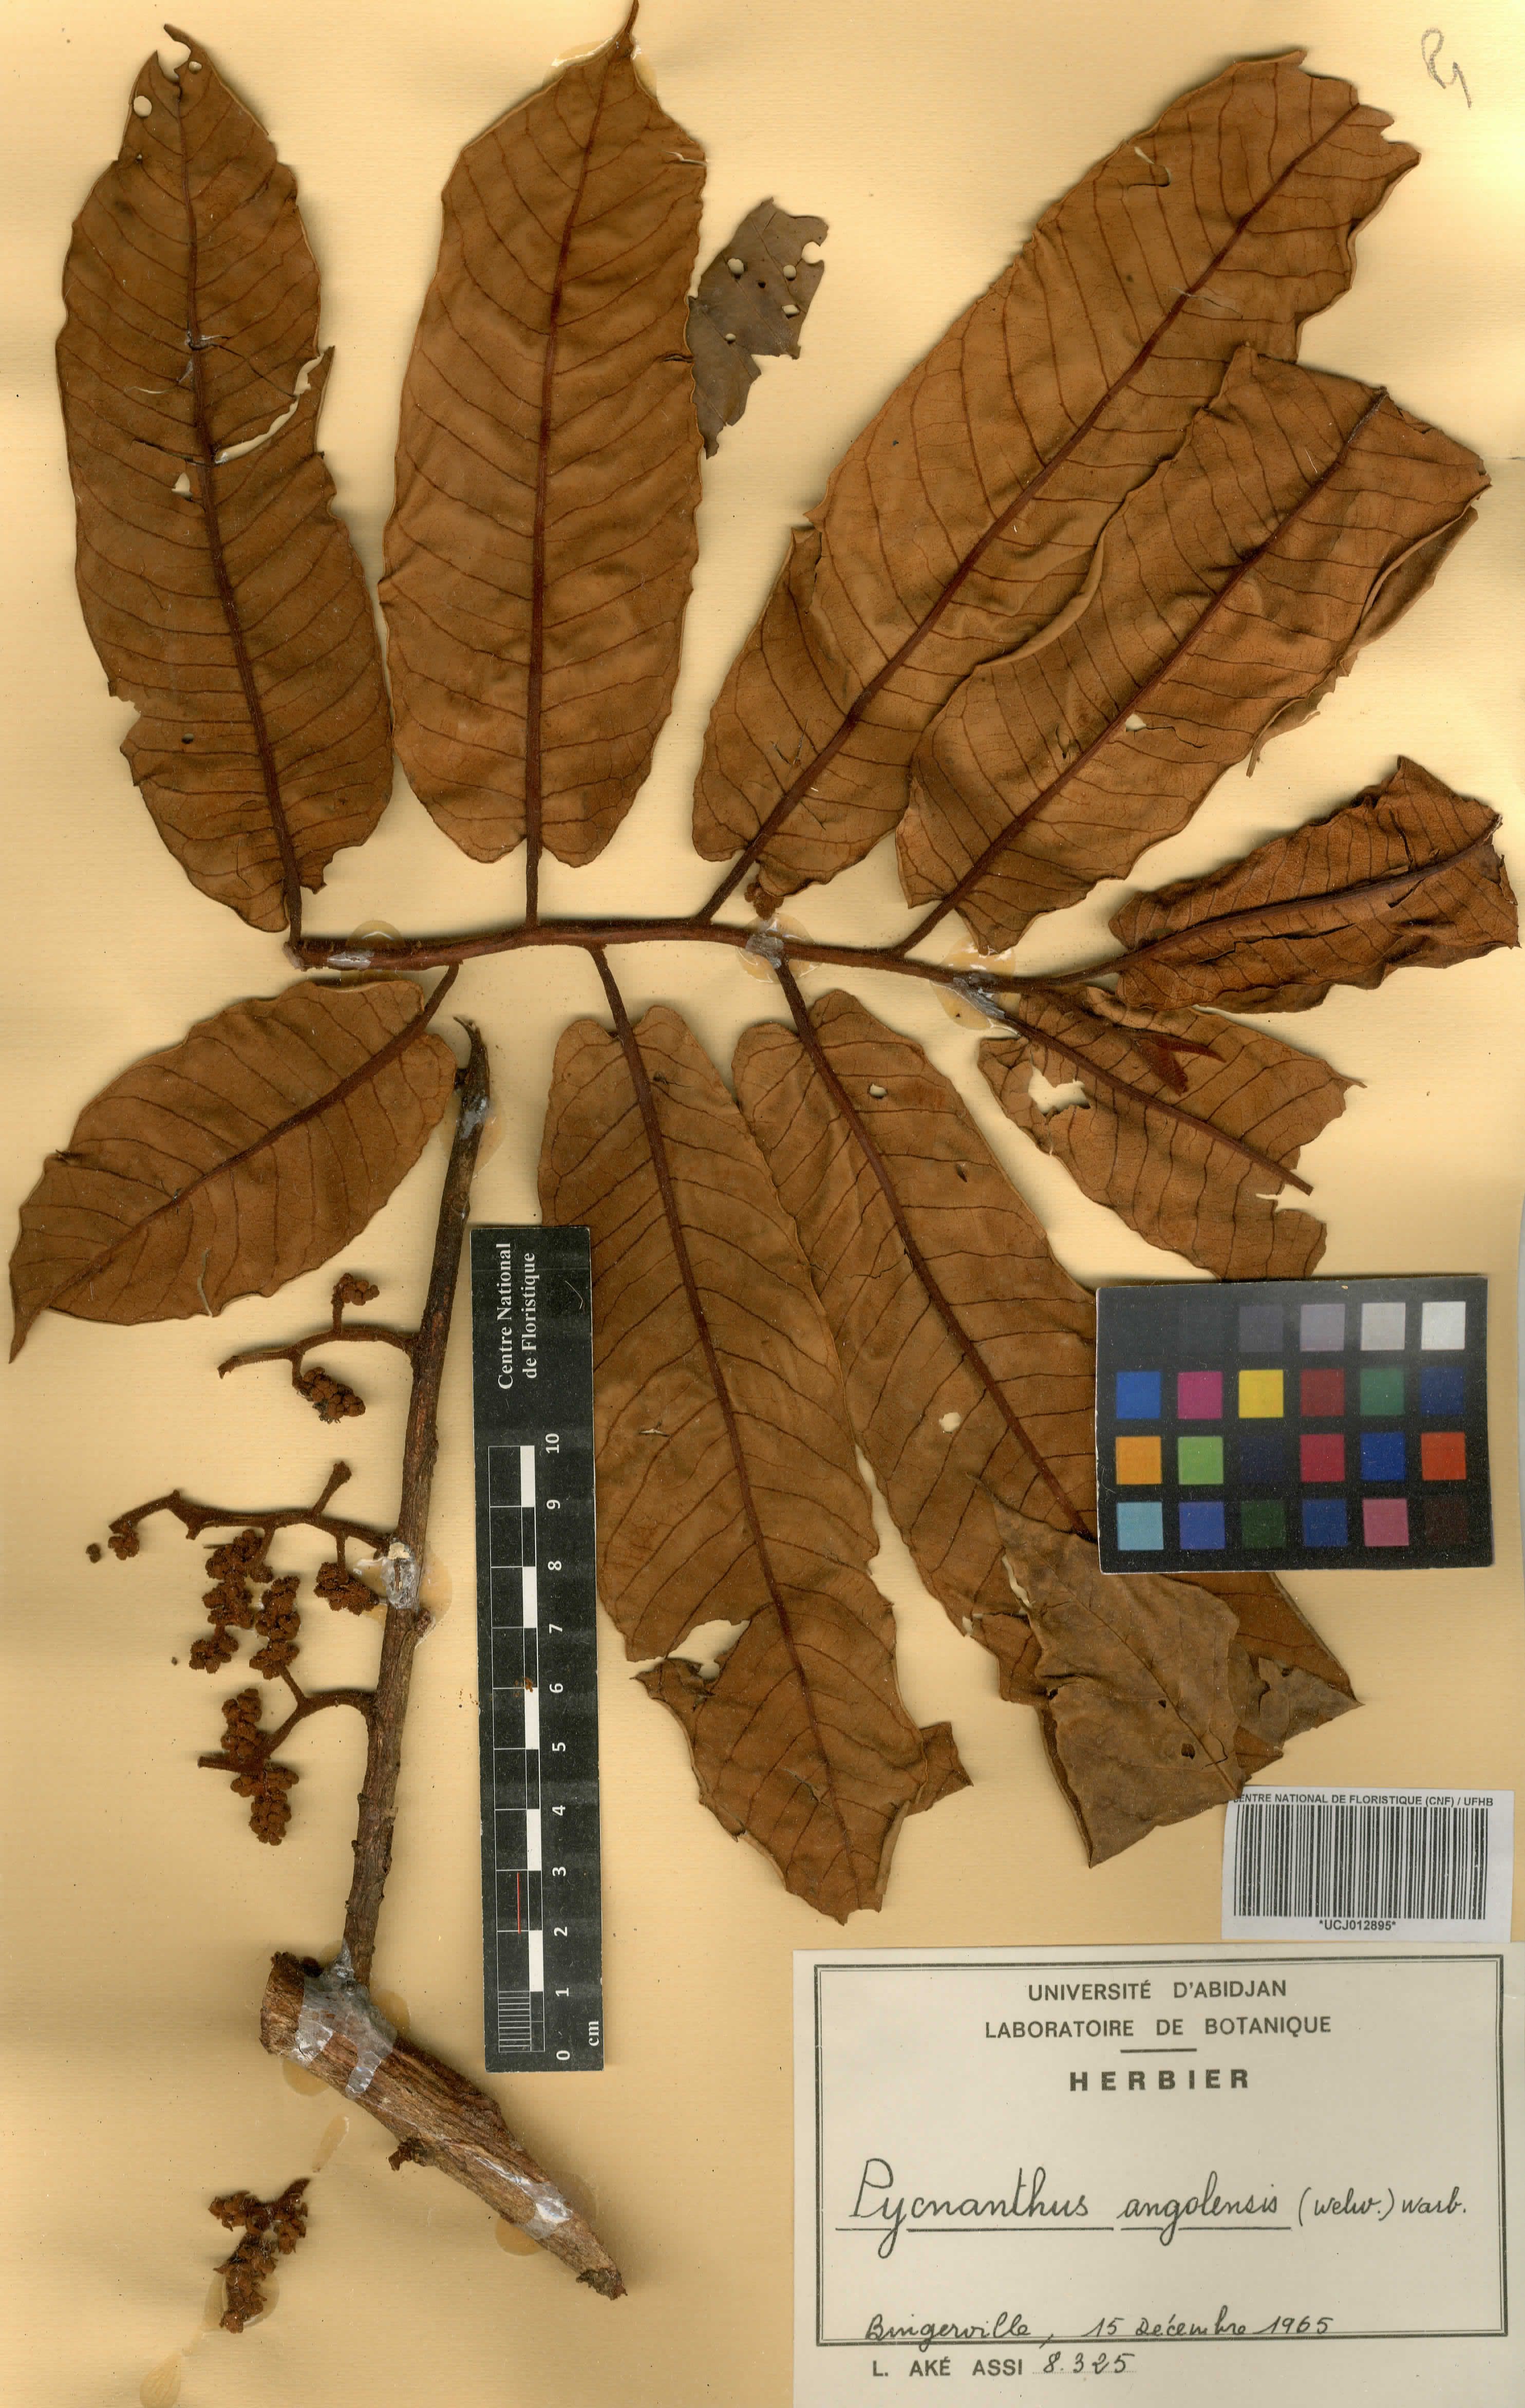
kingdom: Plantae
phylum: Tracheophyta
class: Magnoliopsida
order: Magnoliales
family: Myristicaceae
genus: Pycnanthus
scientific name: Pycnanthus angolensis
